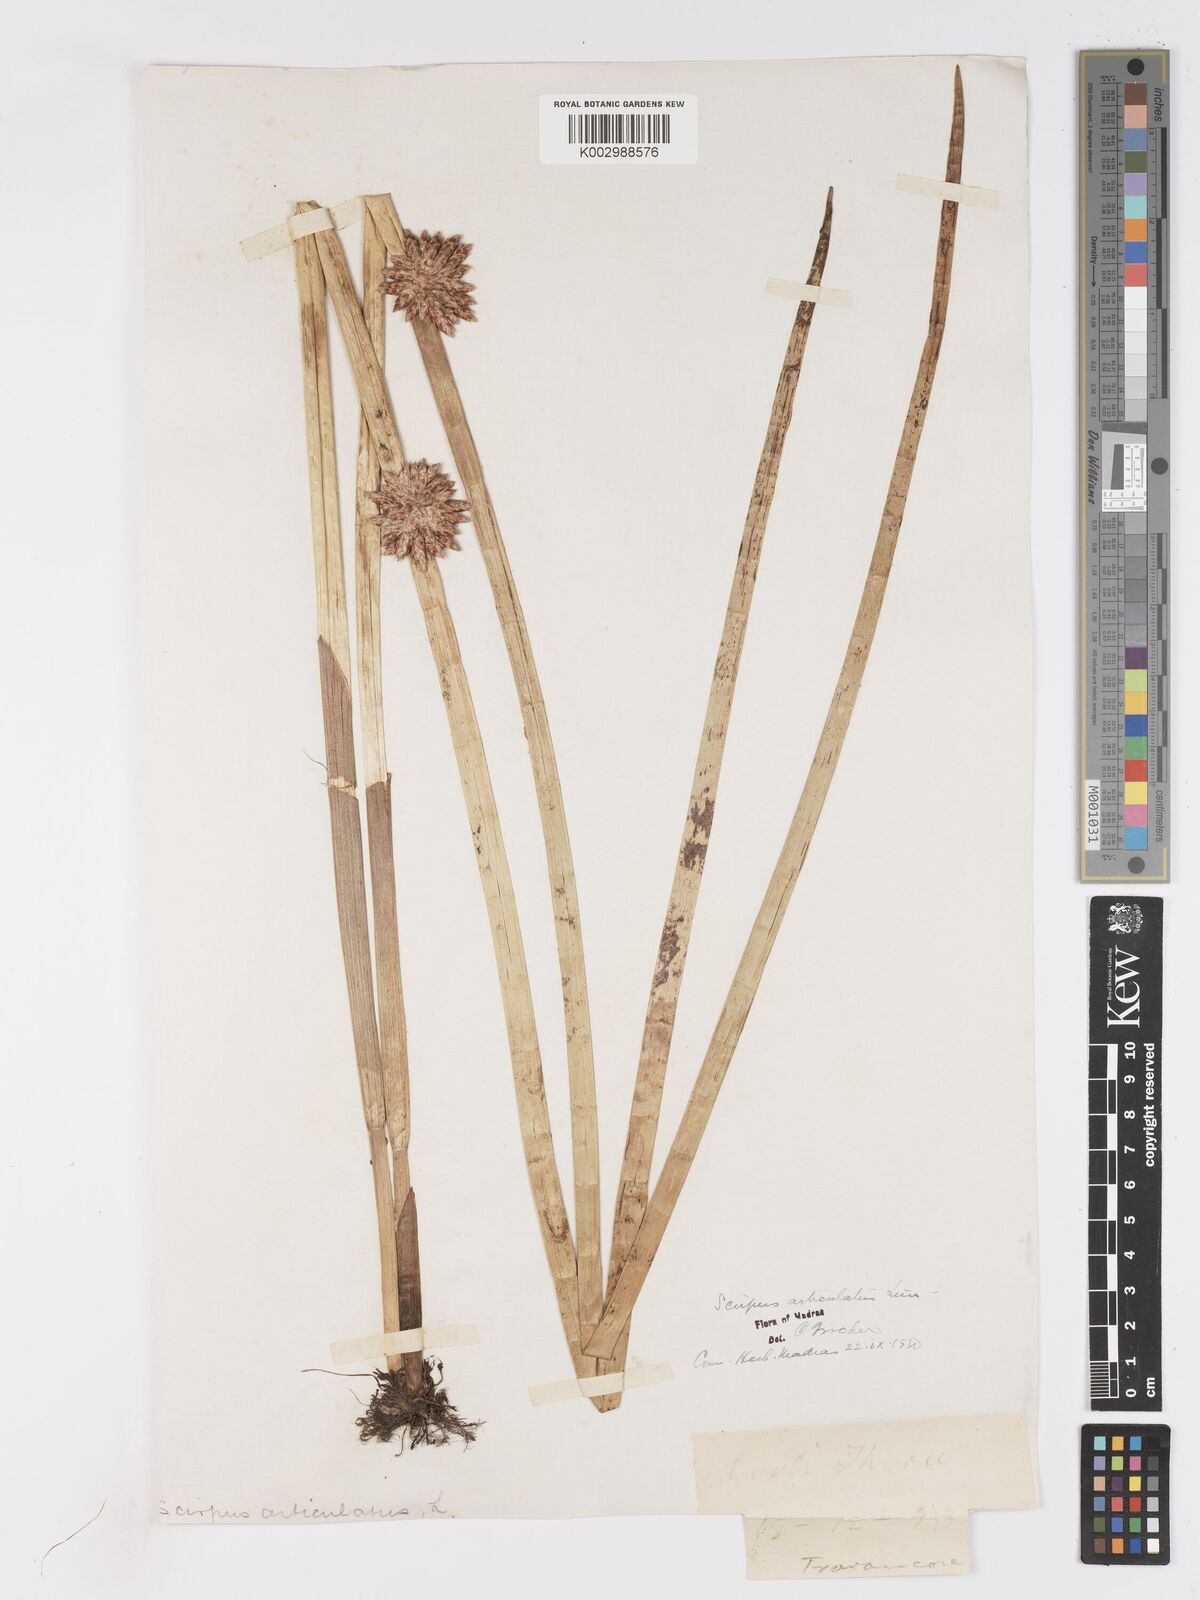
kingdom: Plantae
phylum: Tracheophyta
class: Liliopsida
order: Poales
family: Cyperaceae
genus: Schoenoplectiella
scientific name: Schoenoplectiella articulata
